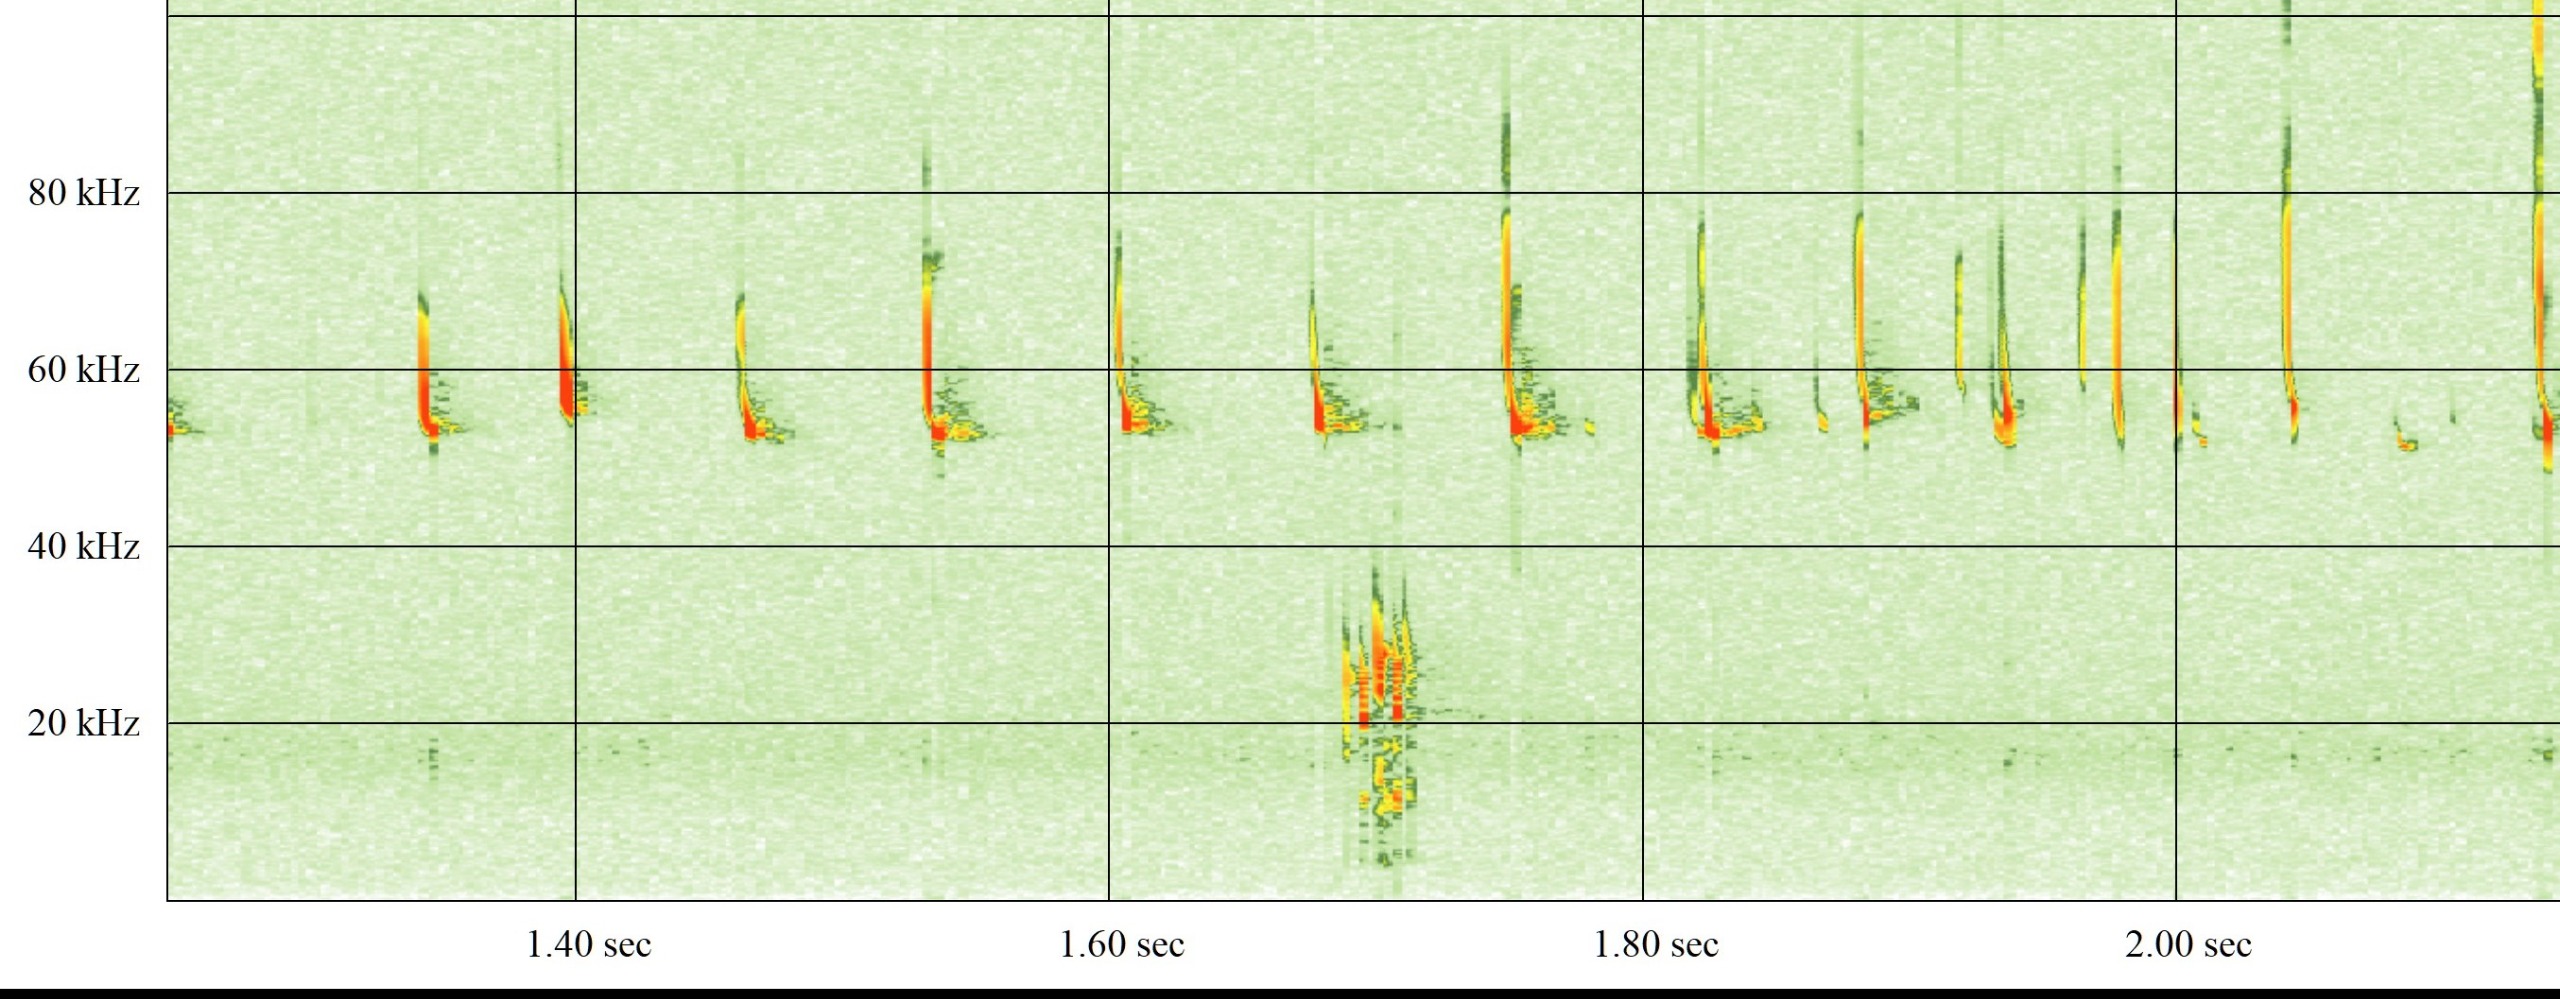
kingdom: Animalia
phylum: Chordata
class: Mammalia
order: Chiroptera
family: Vespertilionidae
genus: Pipistrellus
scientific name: Pipistrellus pygmaeus
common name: Dværgflagermus
